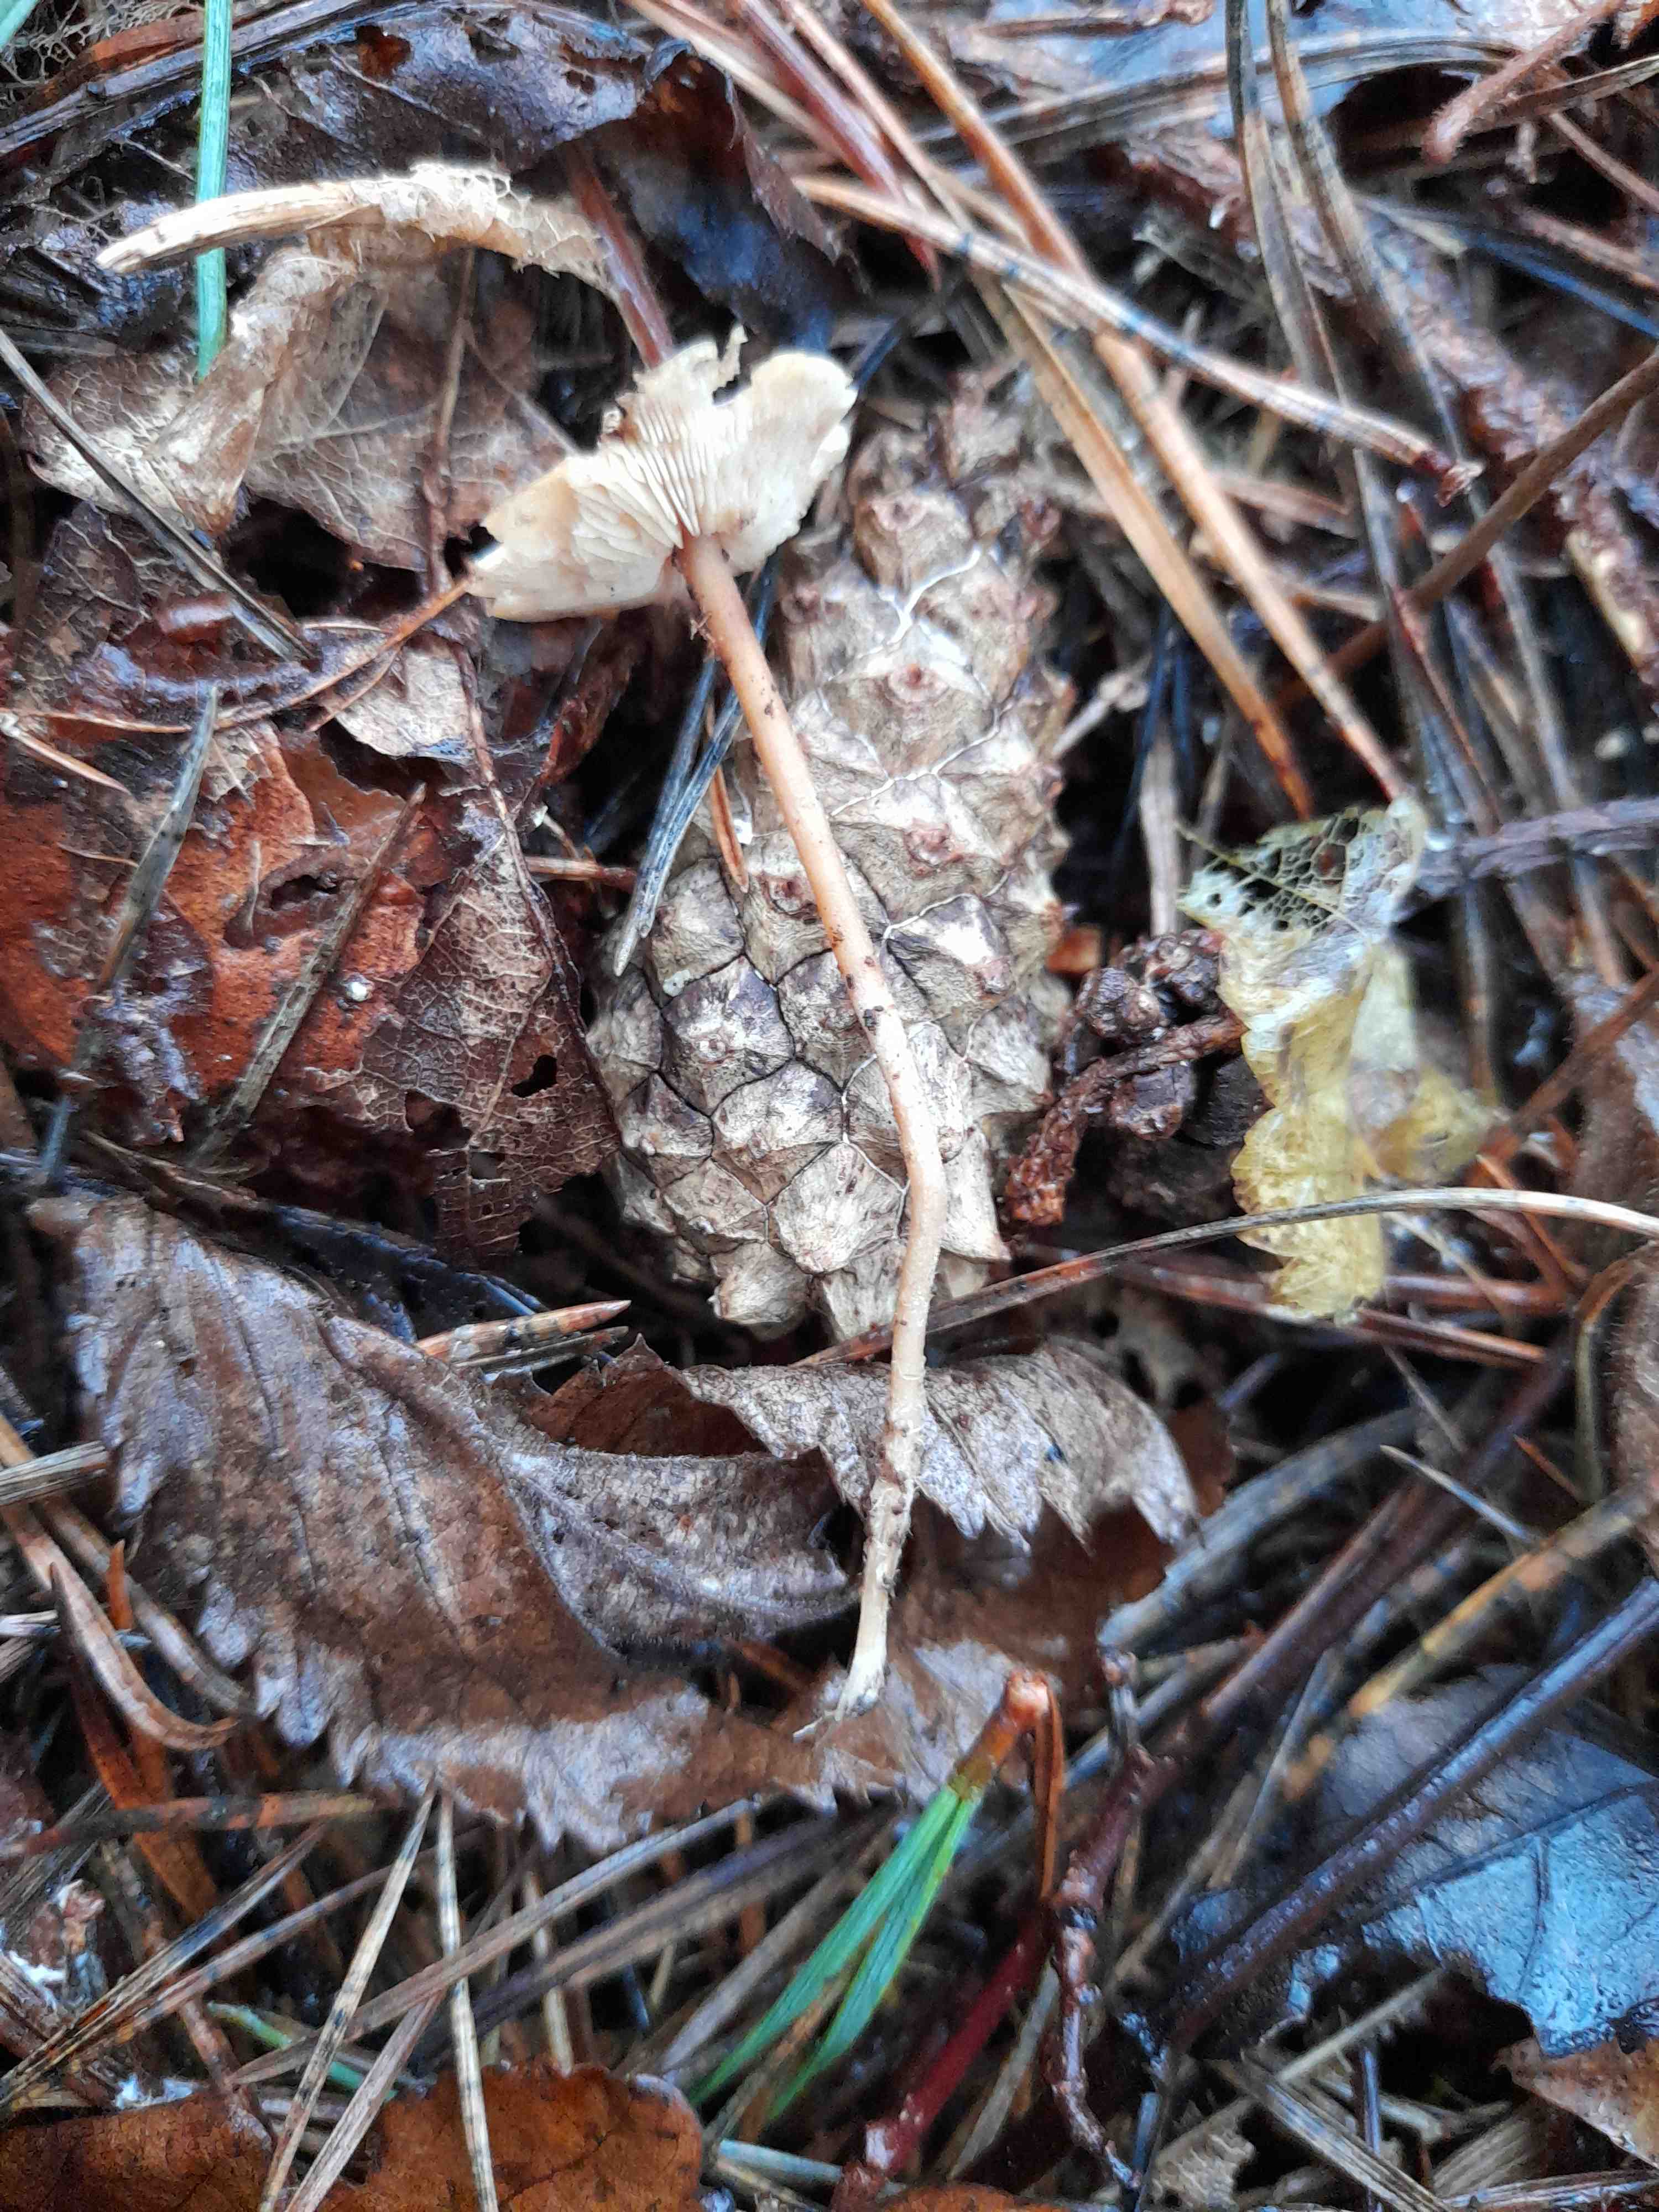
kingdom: Fungi
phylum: Basidiomycota
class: Agaricomycetes
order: Agaricales
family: Marasmiaceae
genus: Baeospora
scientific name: Baeospora myosura
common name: koglebruskhat
